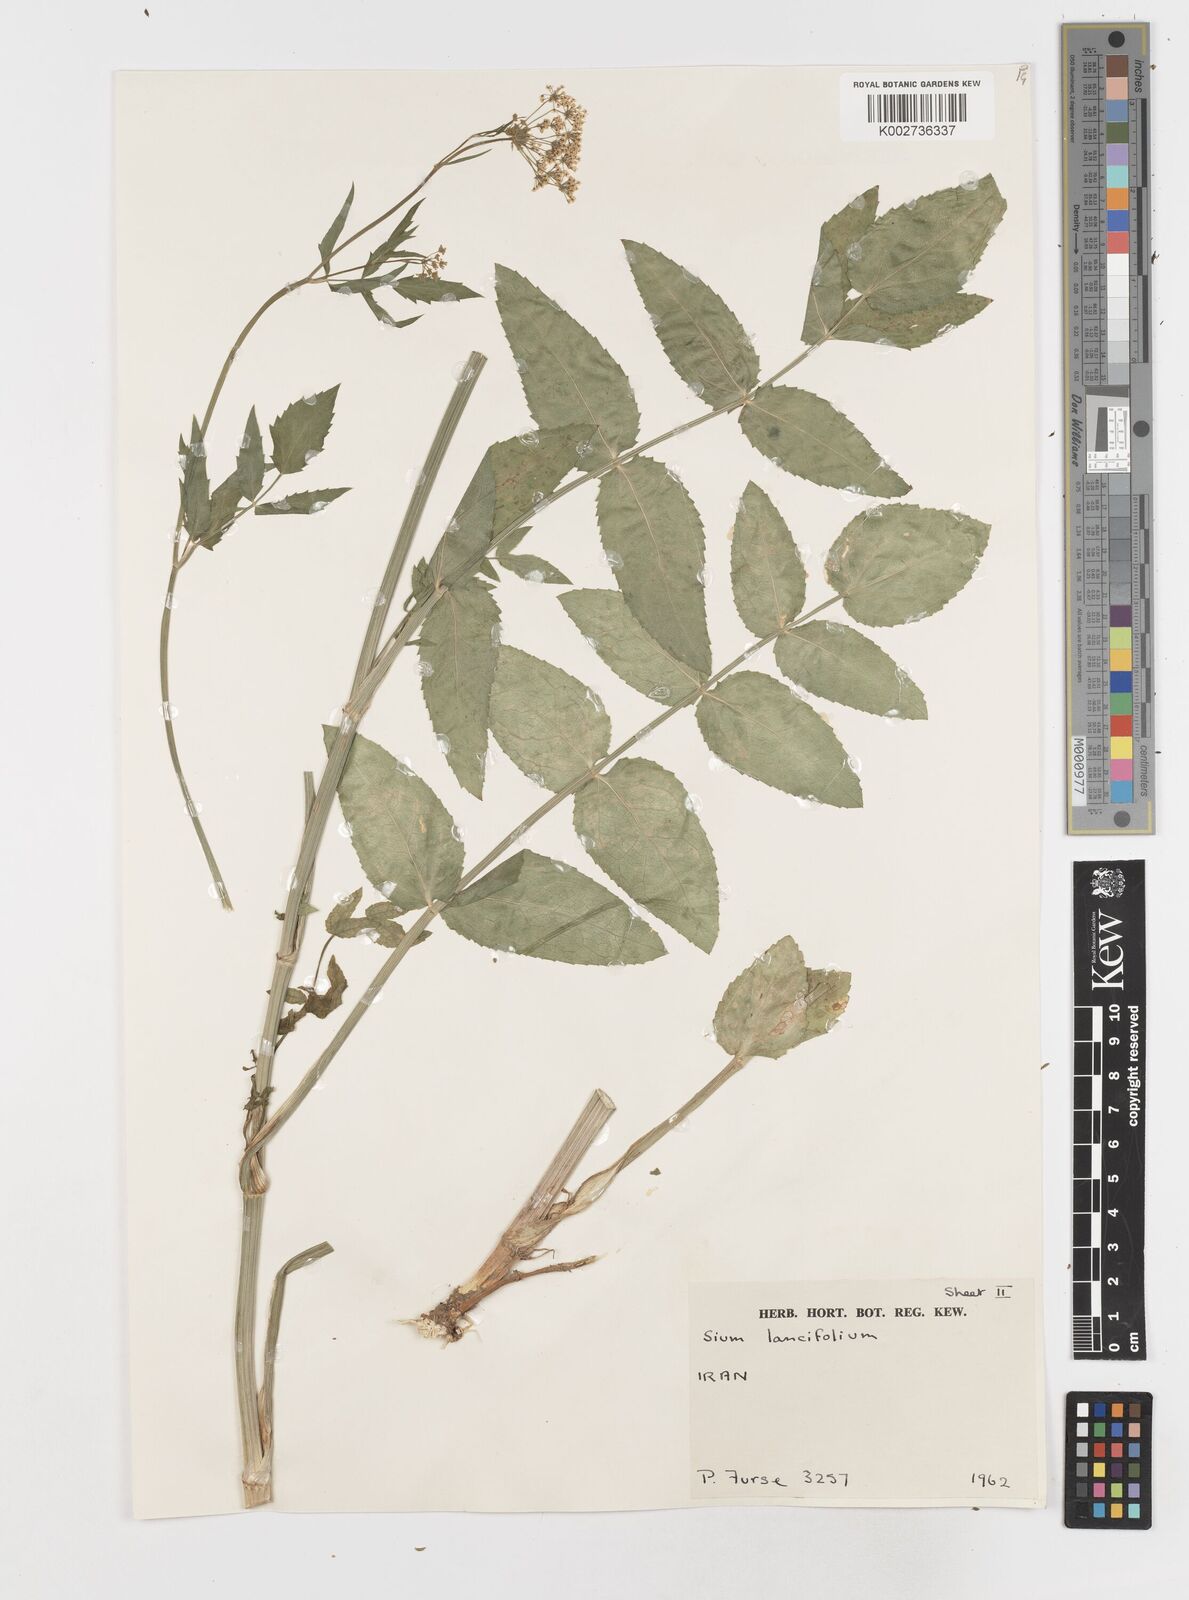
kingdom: Plantae
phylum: Tracheophyta
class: Magnoliopsida
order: Apiales
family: Apiaceae
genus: Sium
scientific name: Sium sisarum
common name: Skirret
